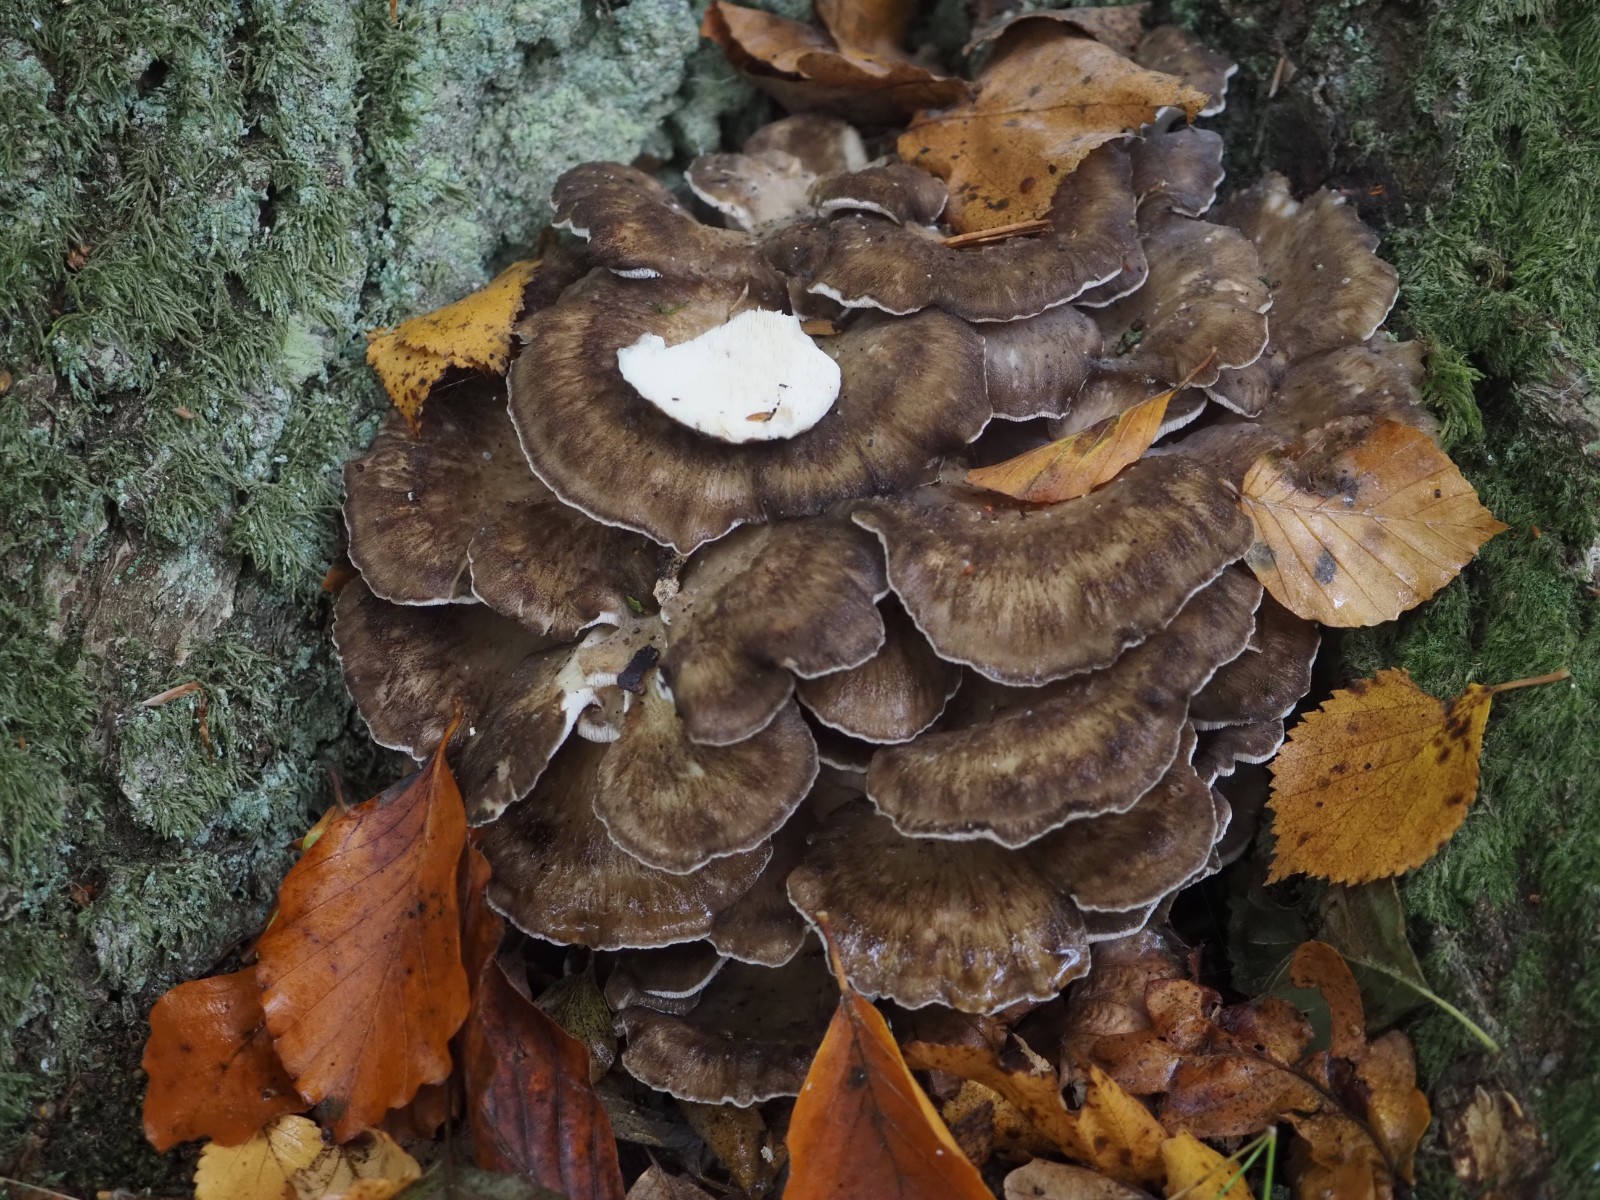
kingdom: Fungi
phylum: Basidiomycota
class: Agaricomycetes
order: Polyporales
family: Grifolaceae
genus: Grifola
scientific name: Grifola frondosa
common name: tueporesvamp
